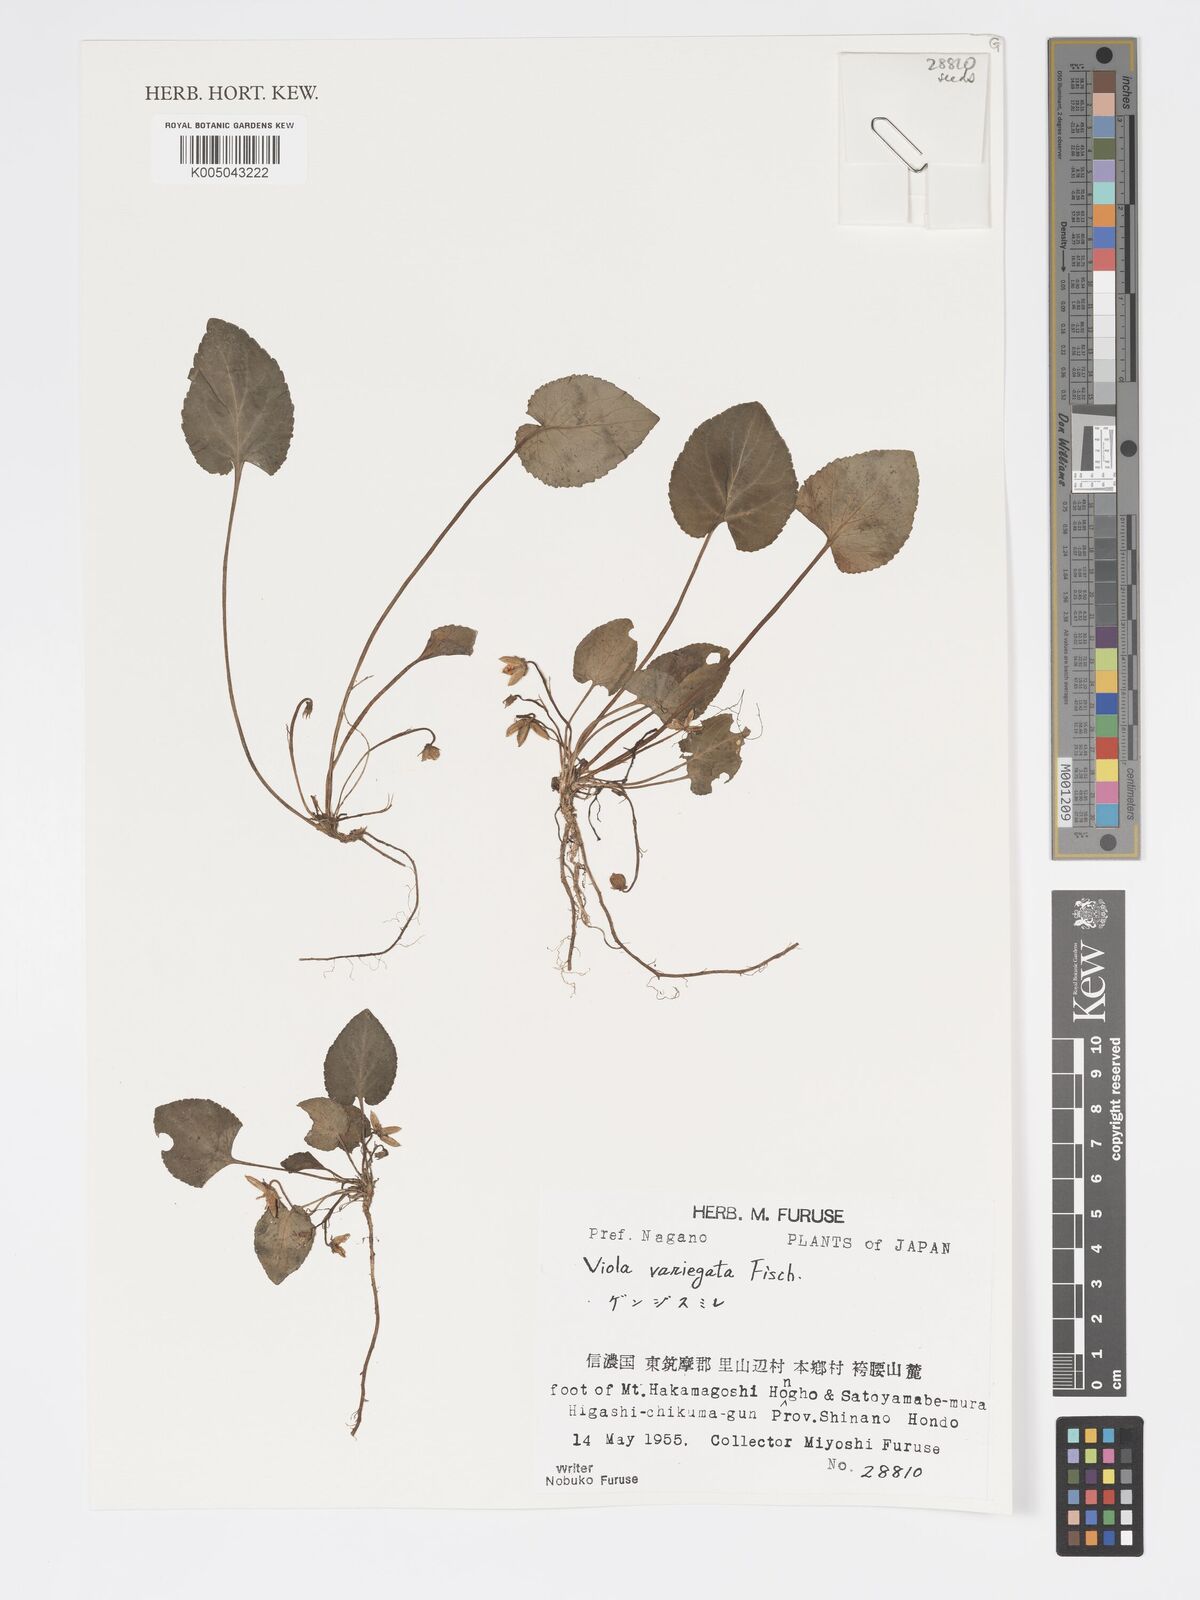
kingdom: Plantae
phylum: Tracheophyta
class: Magnoliopsida
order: Malpighiales
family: Violaceae
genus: Viola
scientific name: Viola vaginata
